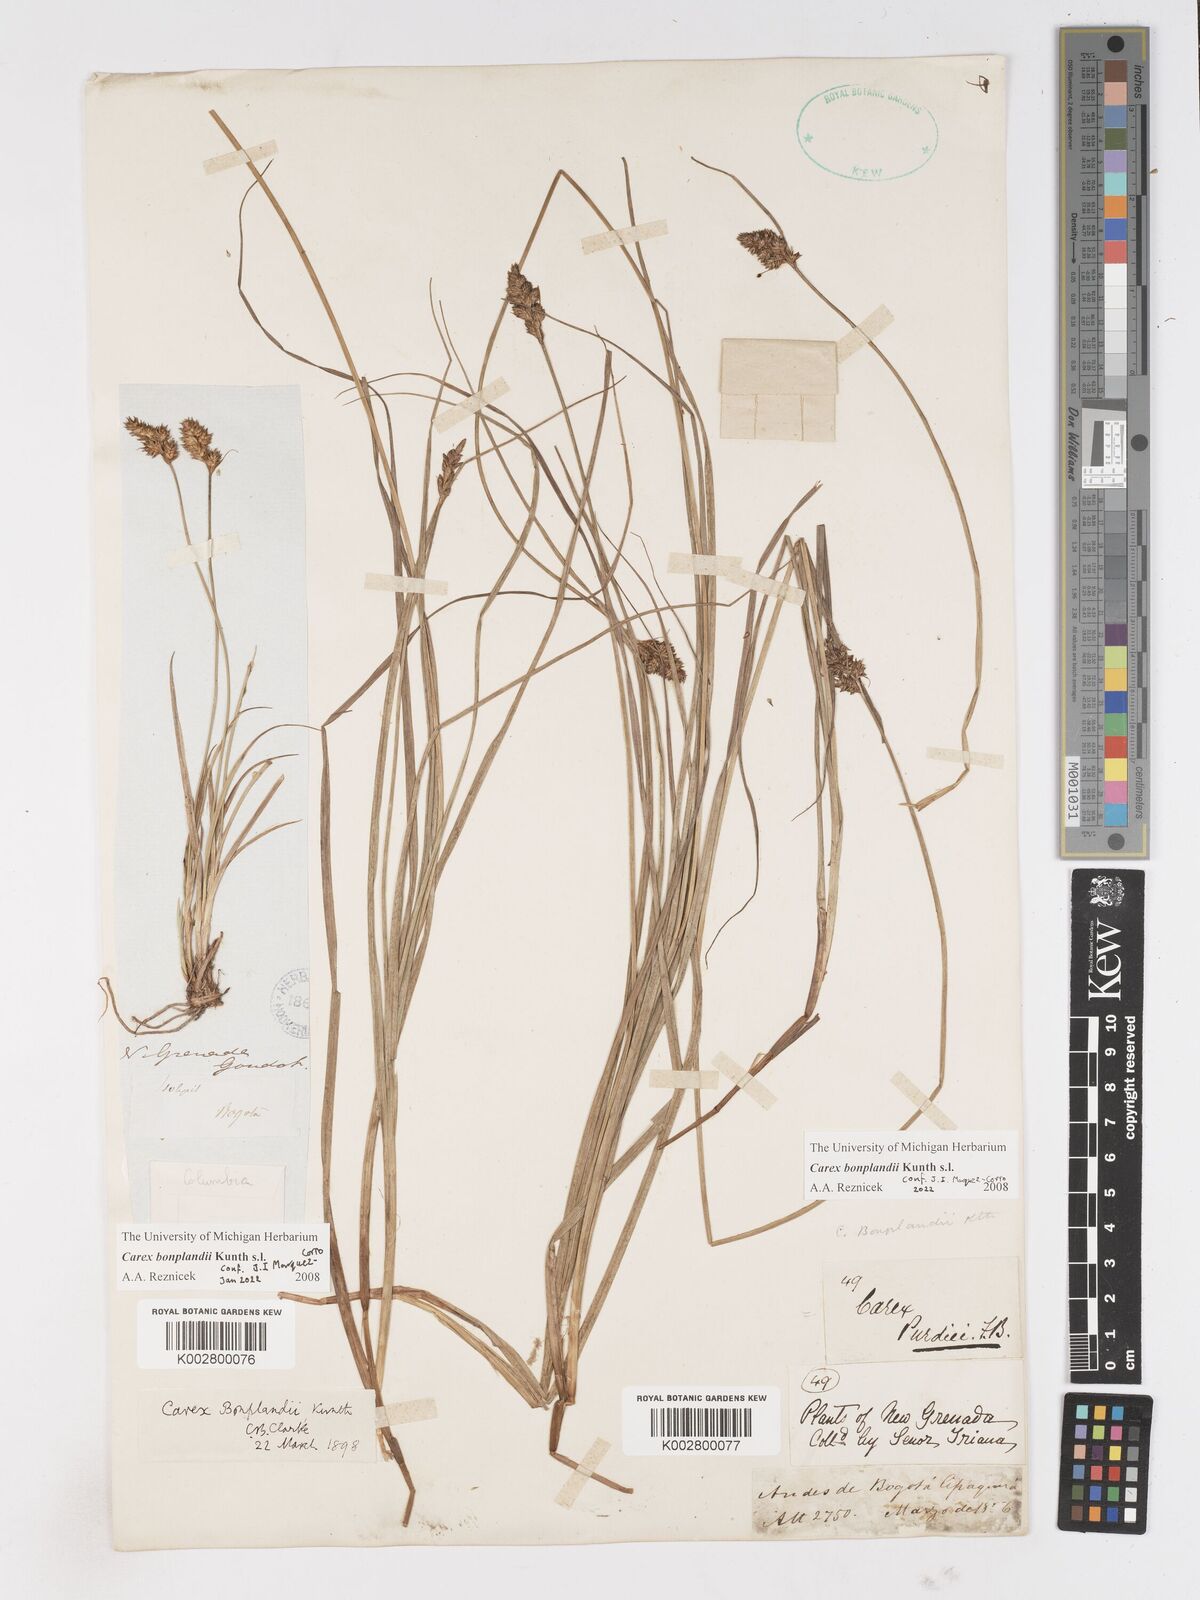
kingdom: Plantae
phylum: Tracheophyta
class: Liliopsida
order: Poales
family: Cyperaceae
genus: Carex
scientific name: Carex bonplandii
